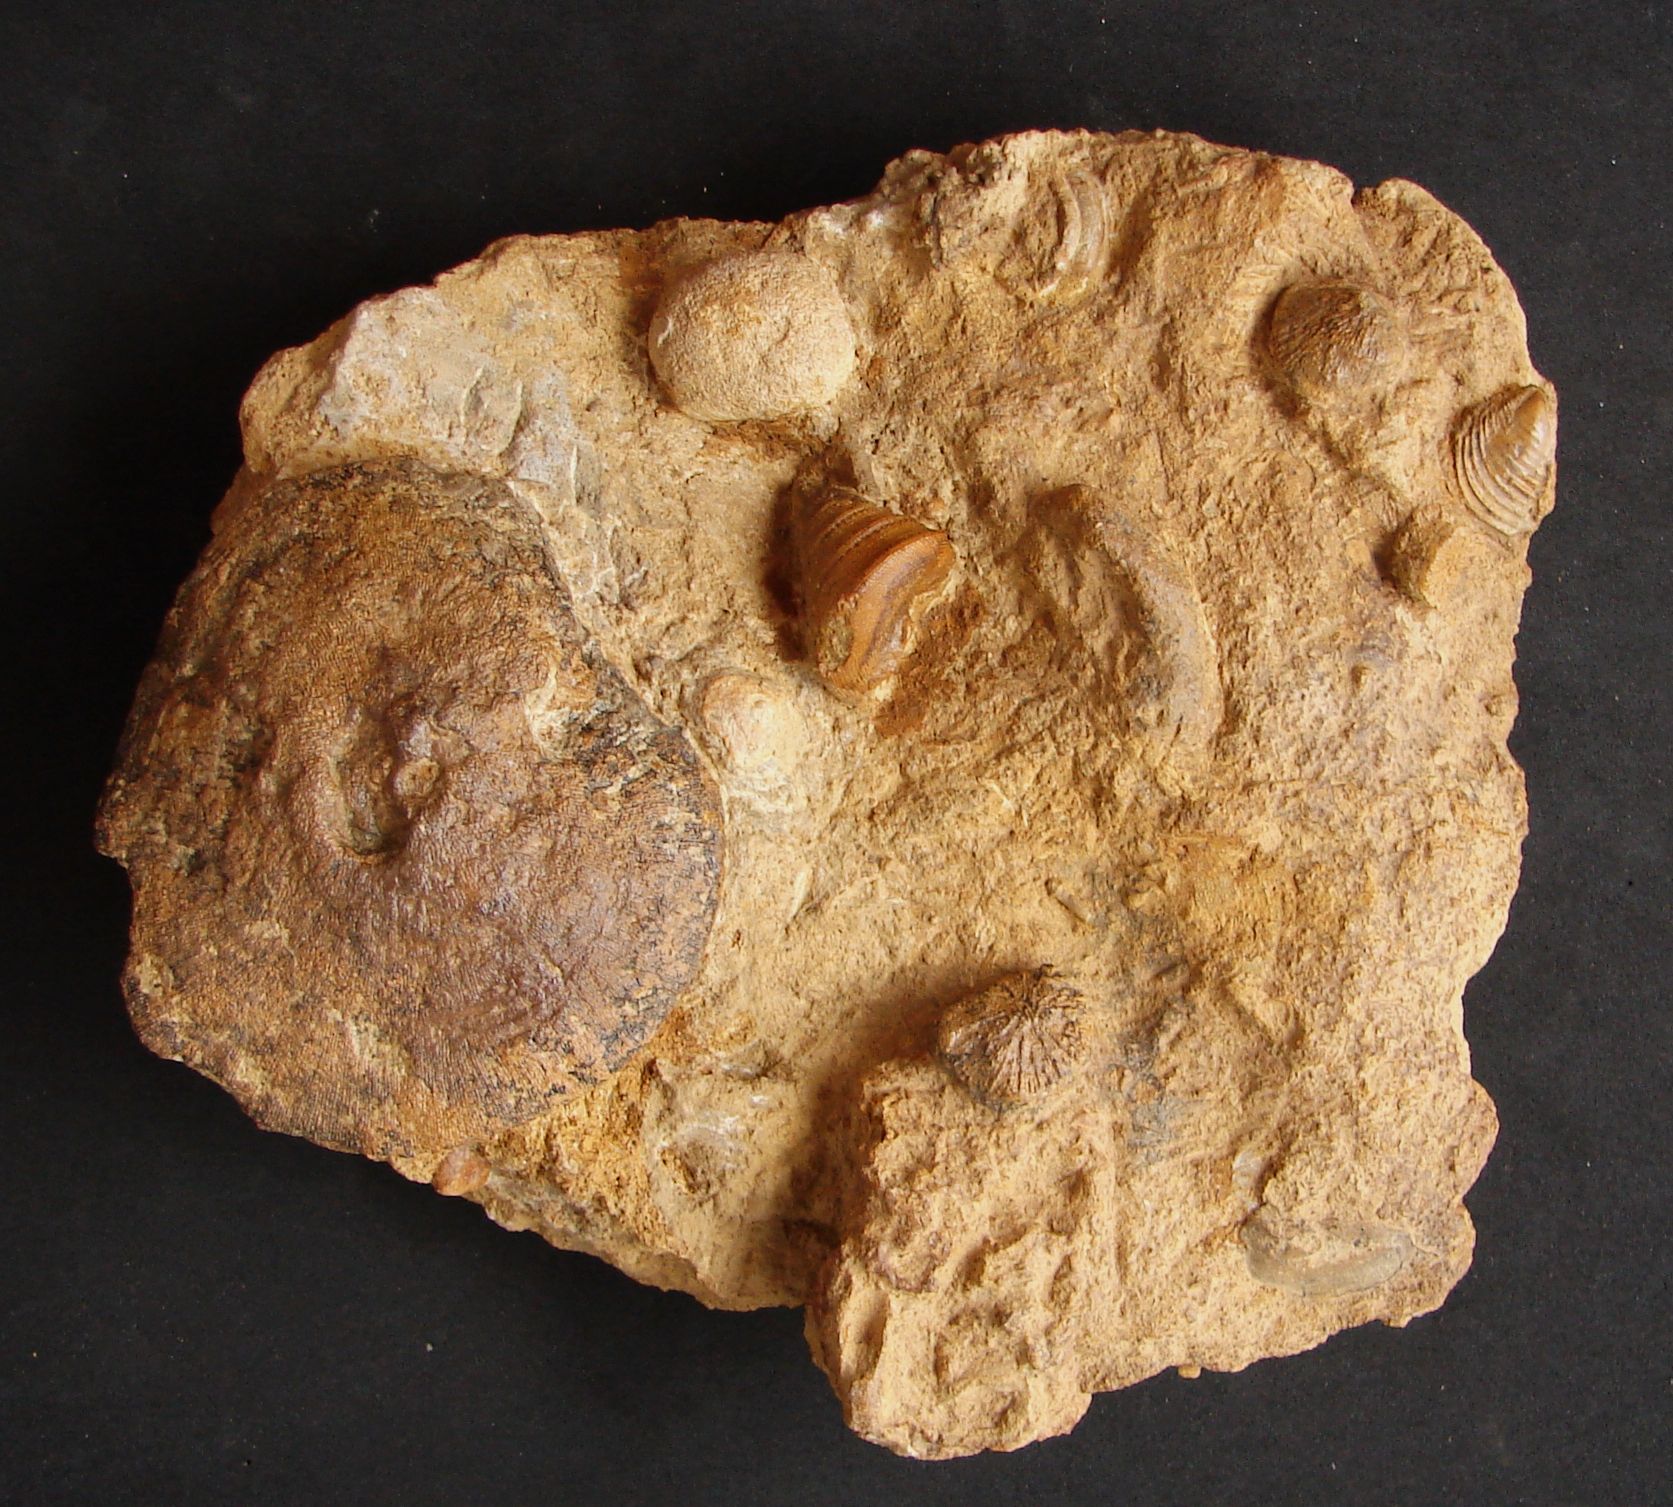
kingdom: Animalia
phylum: Mollusca
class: Gastropoda
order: Pleurotomariida
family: Pleurotomariidae
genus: Pyrgotrochus
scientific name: Pyrgotrochus elongatus
